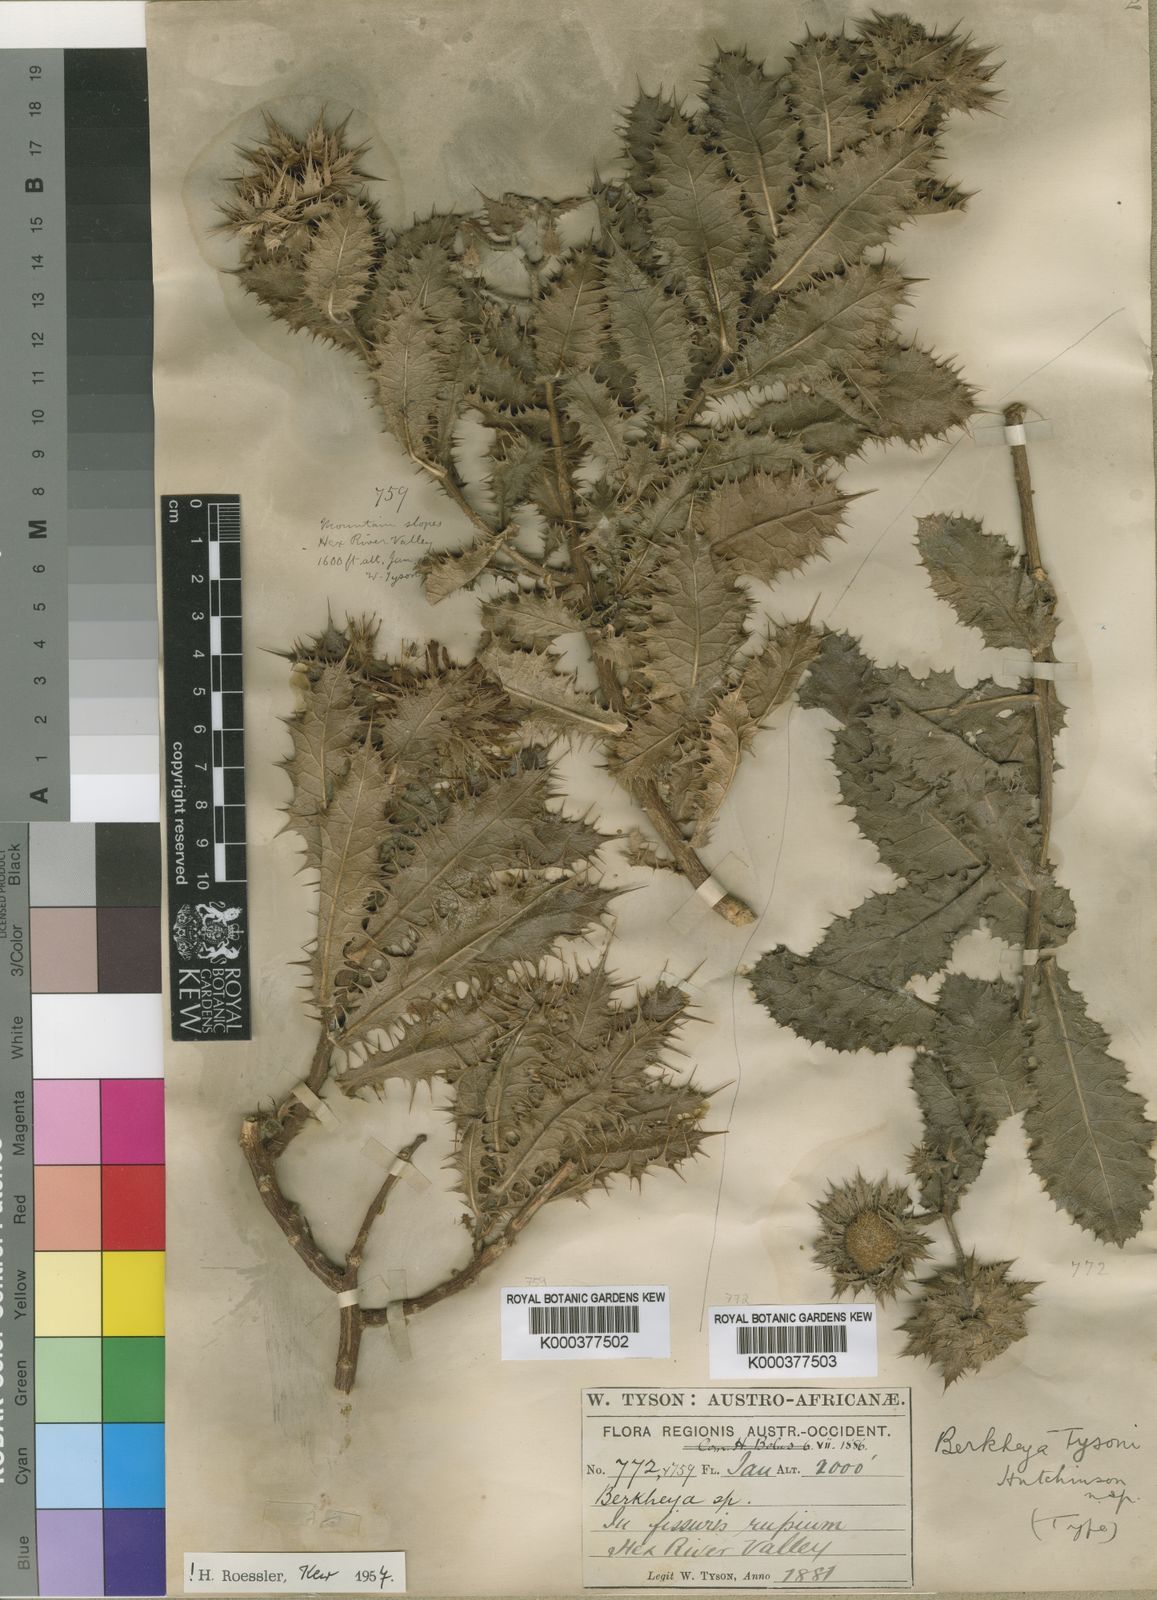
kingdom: Plantae
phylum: Tracheophyta
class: Magnoliopsida
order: Asterales
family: Asteraceae
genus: Berkheya
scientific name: Berkheya tysonii
